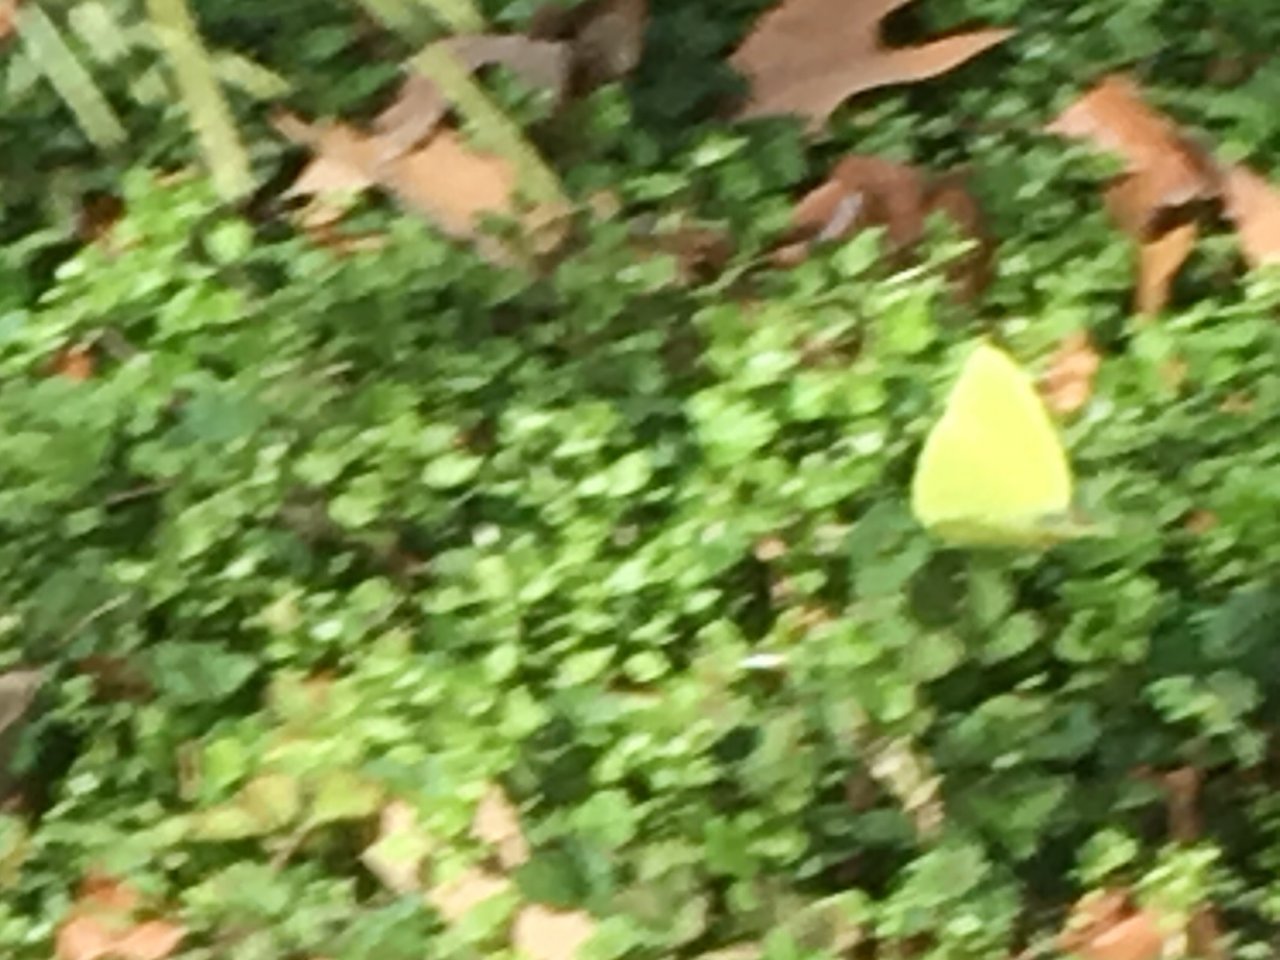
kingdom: Animalia
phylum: Arthropoda
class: Insecta
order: Lepidoptera
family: Pieridae
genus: Phoebis
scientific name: Phoebis sennae
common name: Cloudless Sulphur
